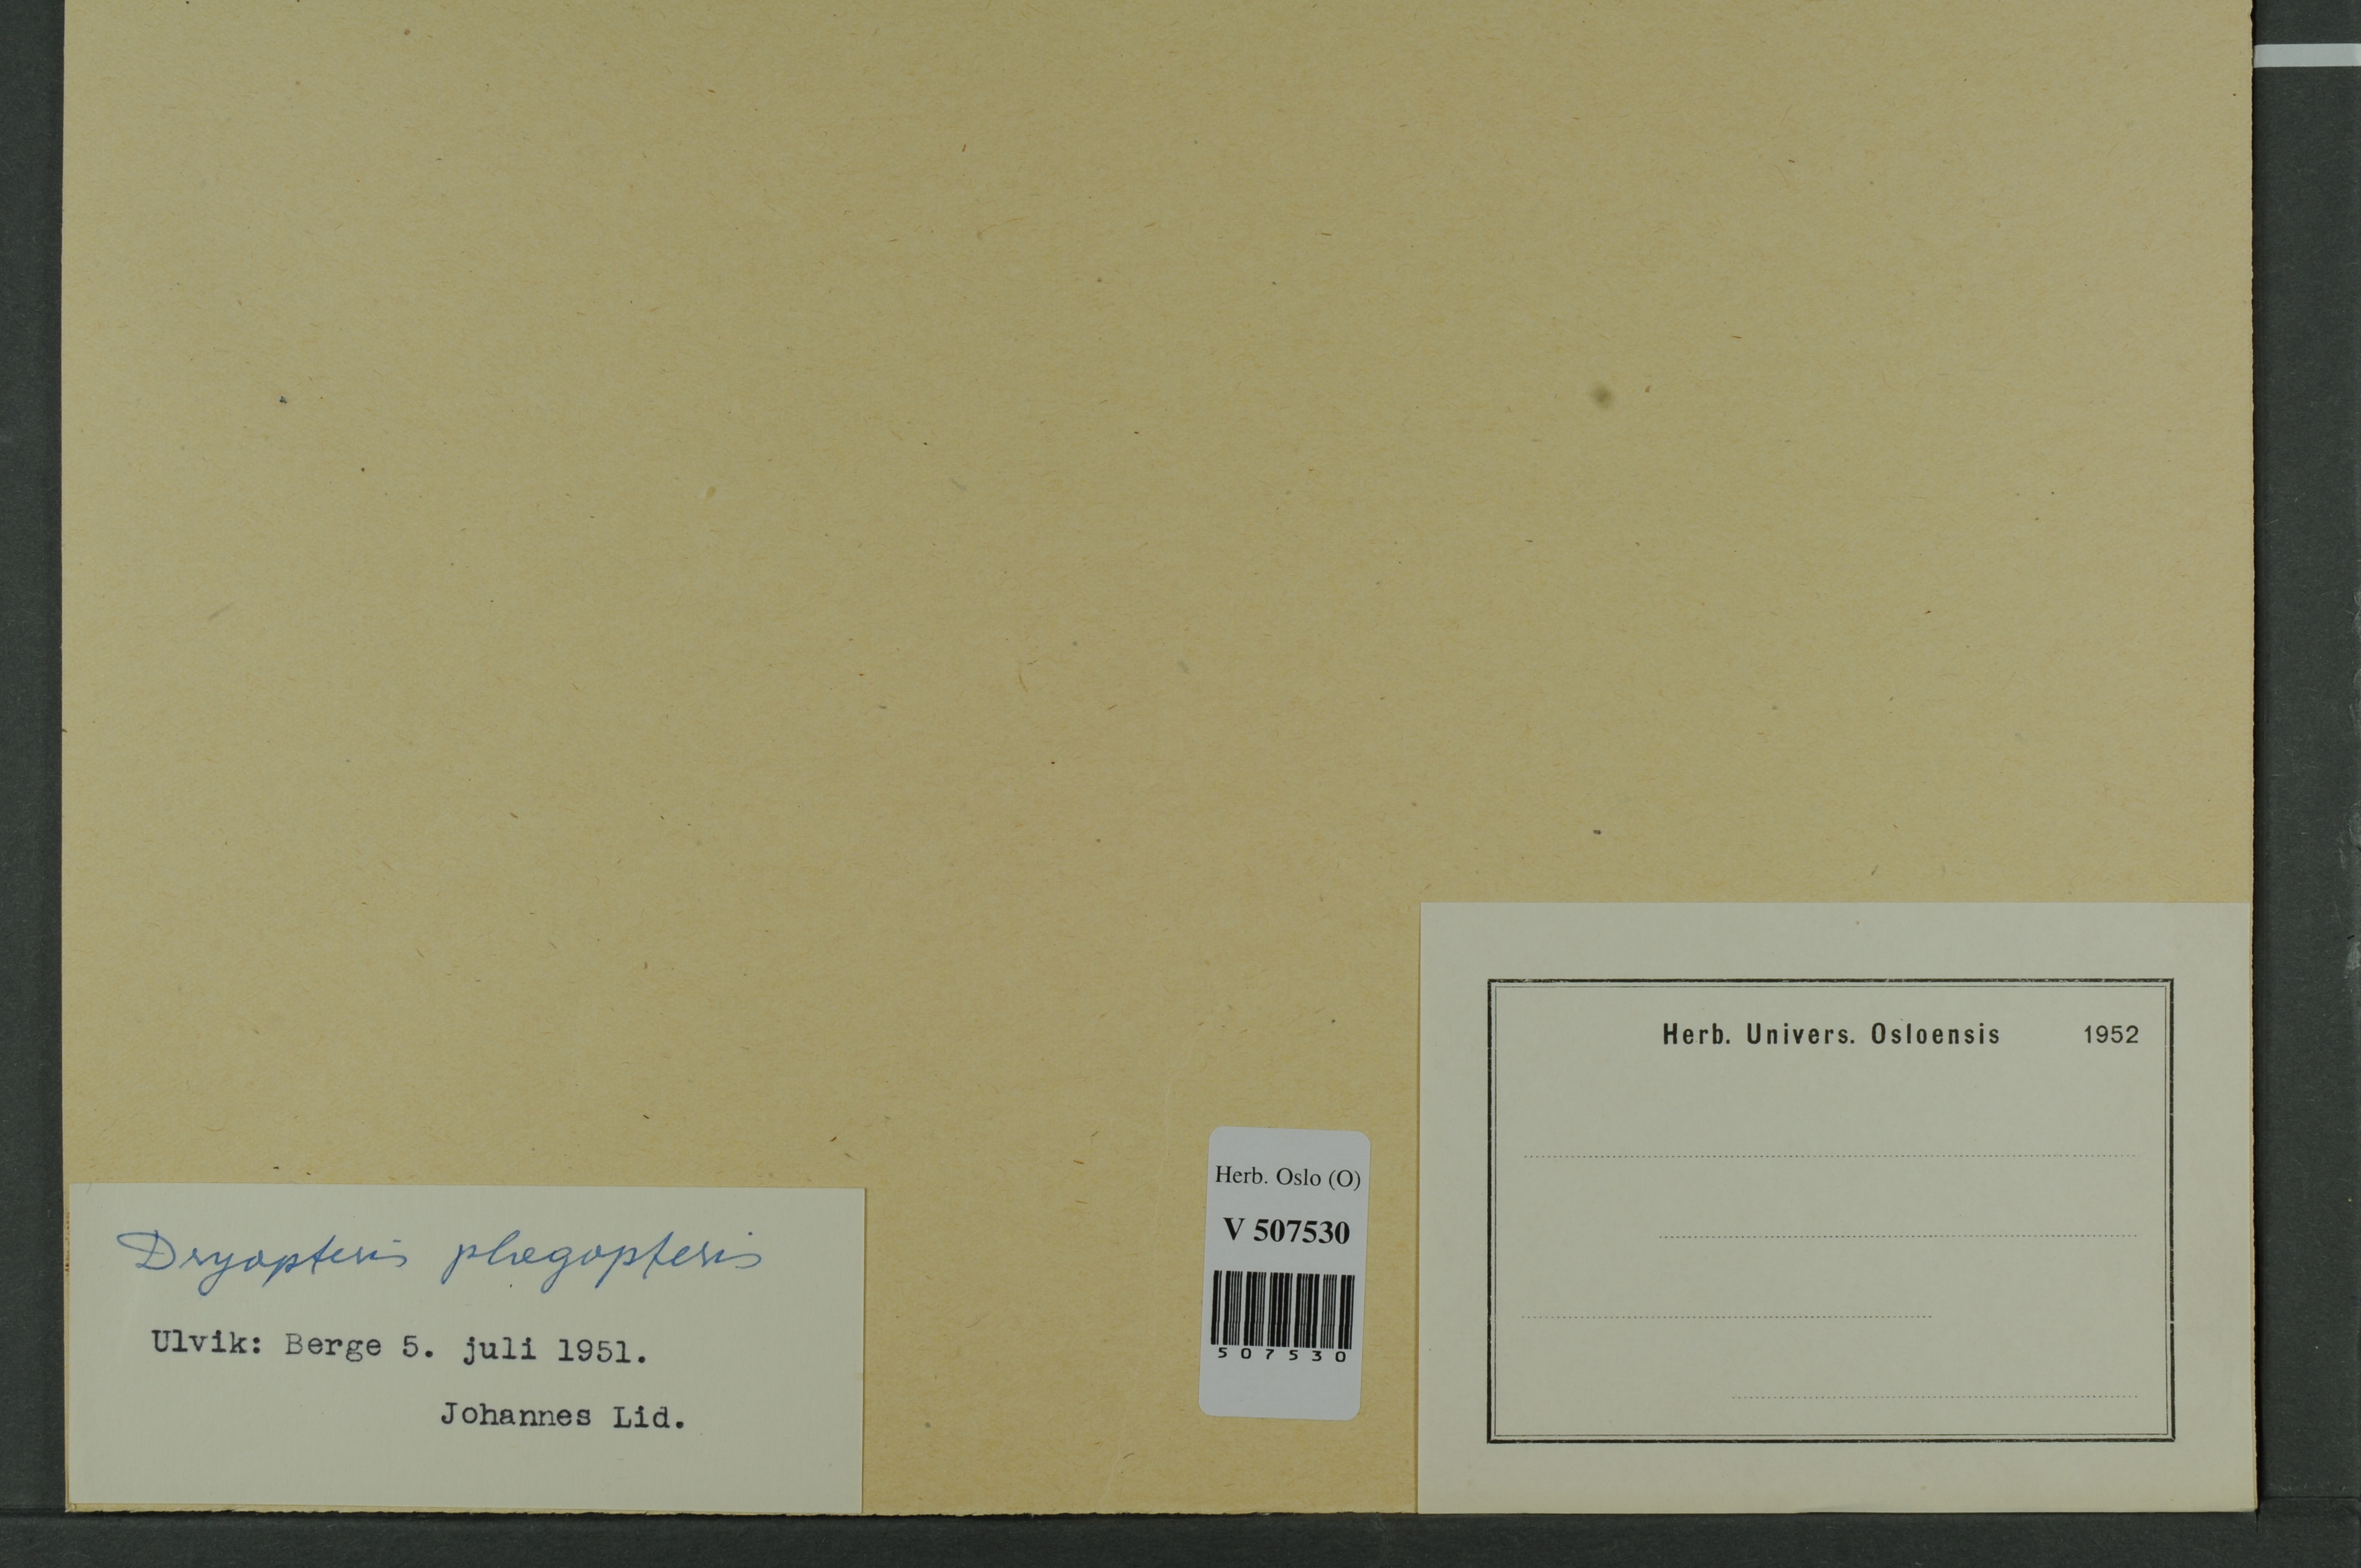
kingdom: Plantae
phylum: Tracheophyta
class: Polypodiopsida
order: Polypodiales
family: Thelypteridaceae
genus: Phegopteris
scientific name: Phegopteris connectilis
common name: Beech fern
